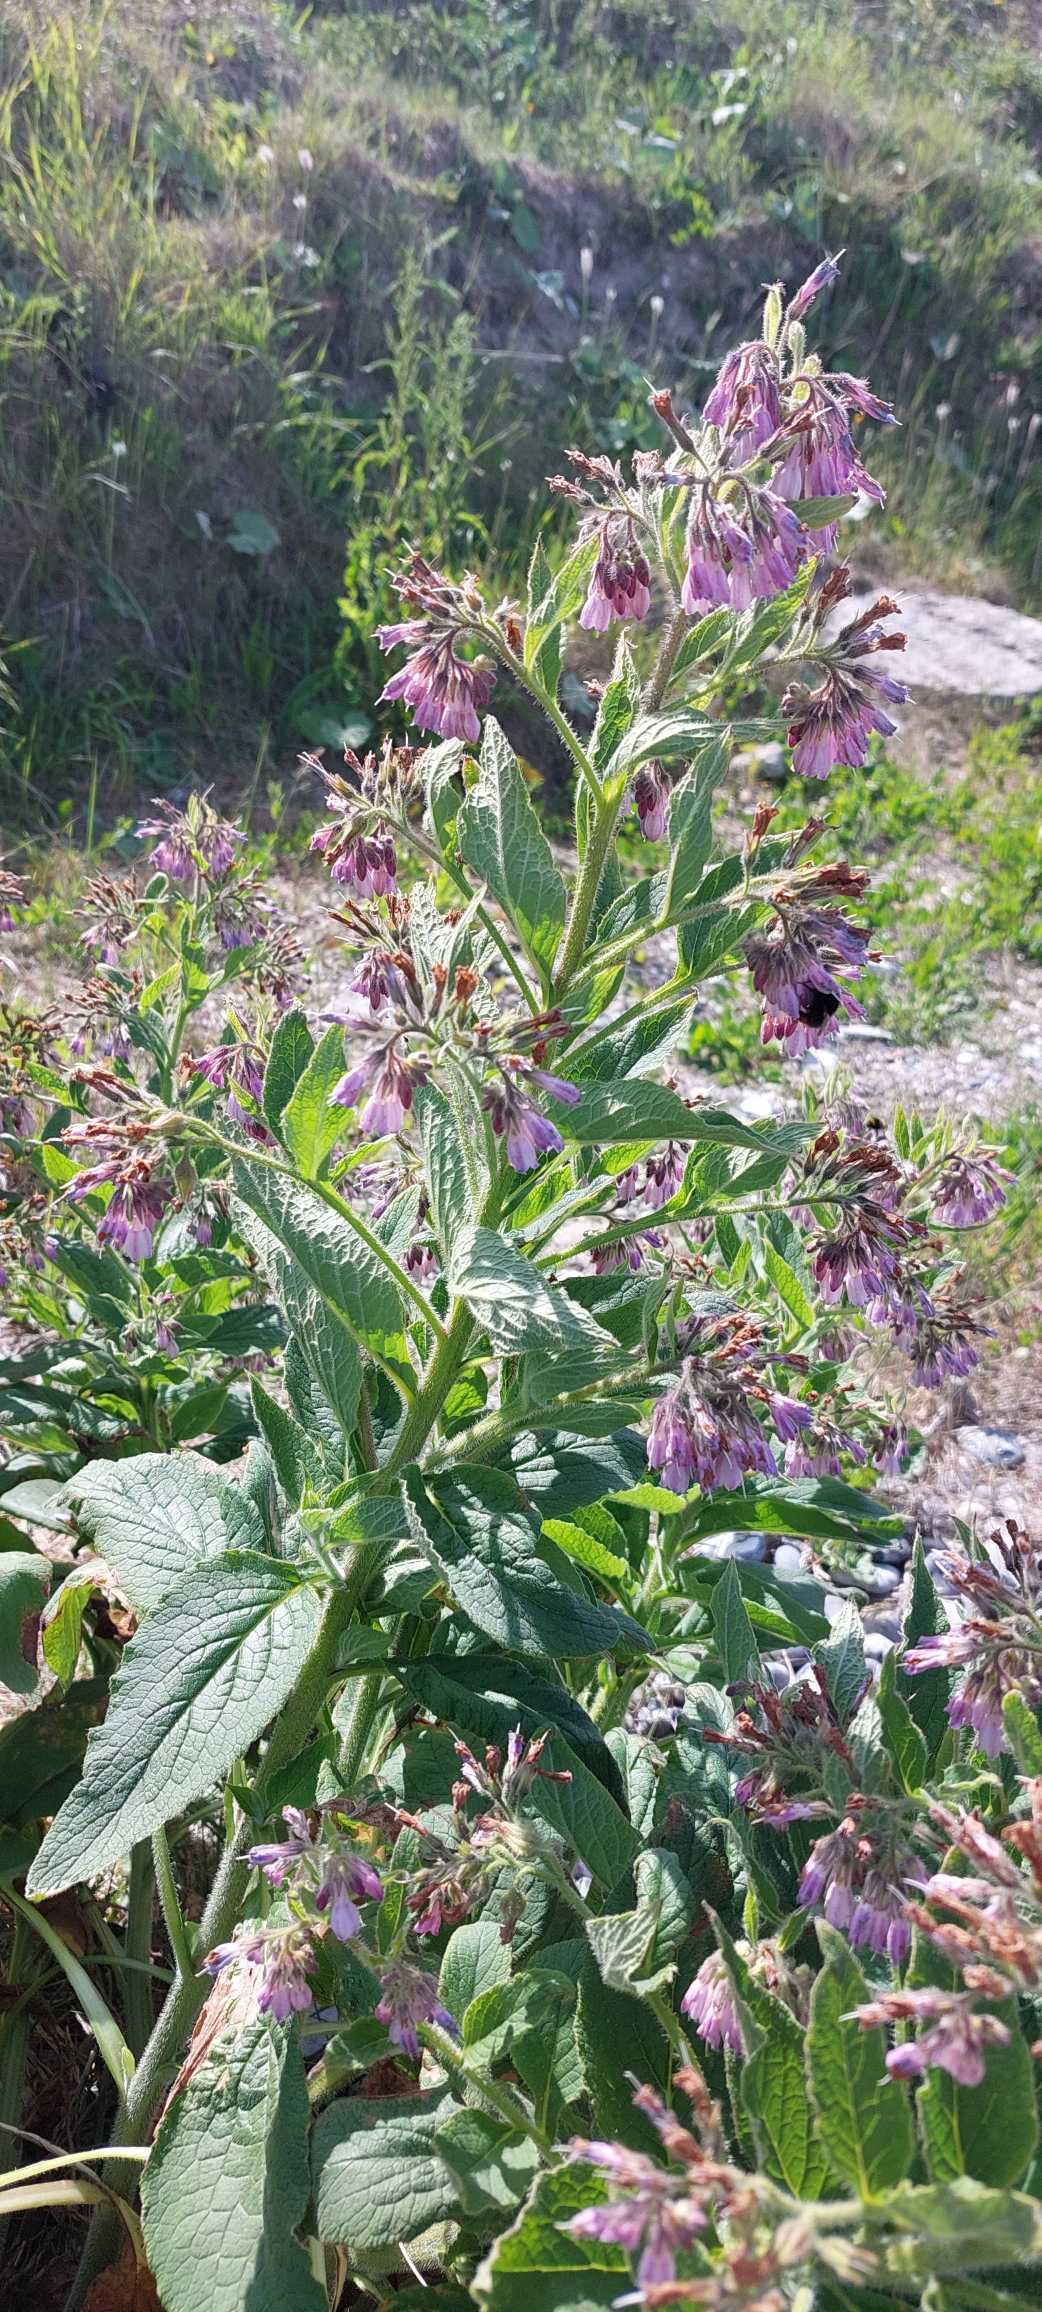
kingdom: Plantae
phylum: Tracheophyta
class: Magnoliopsida
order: Boraginales
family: Boraginaceae
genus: Symphytum
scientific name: Symphytum uplandicum
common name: Foder-kulsukker
